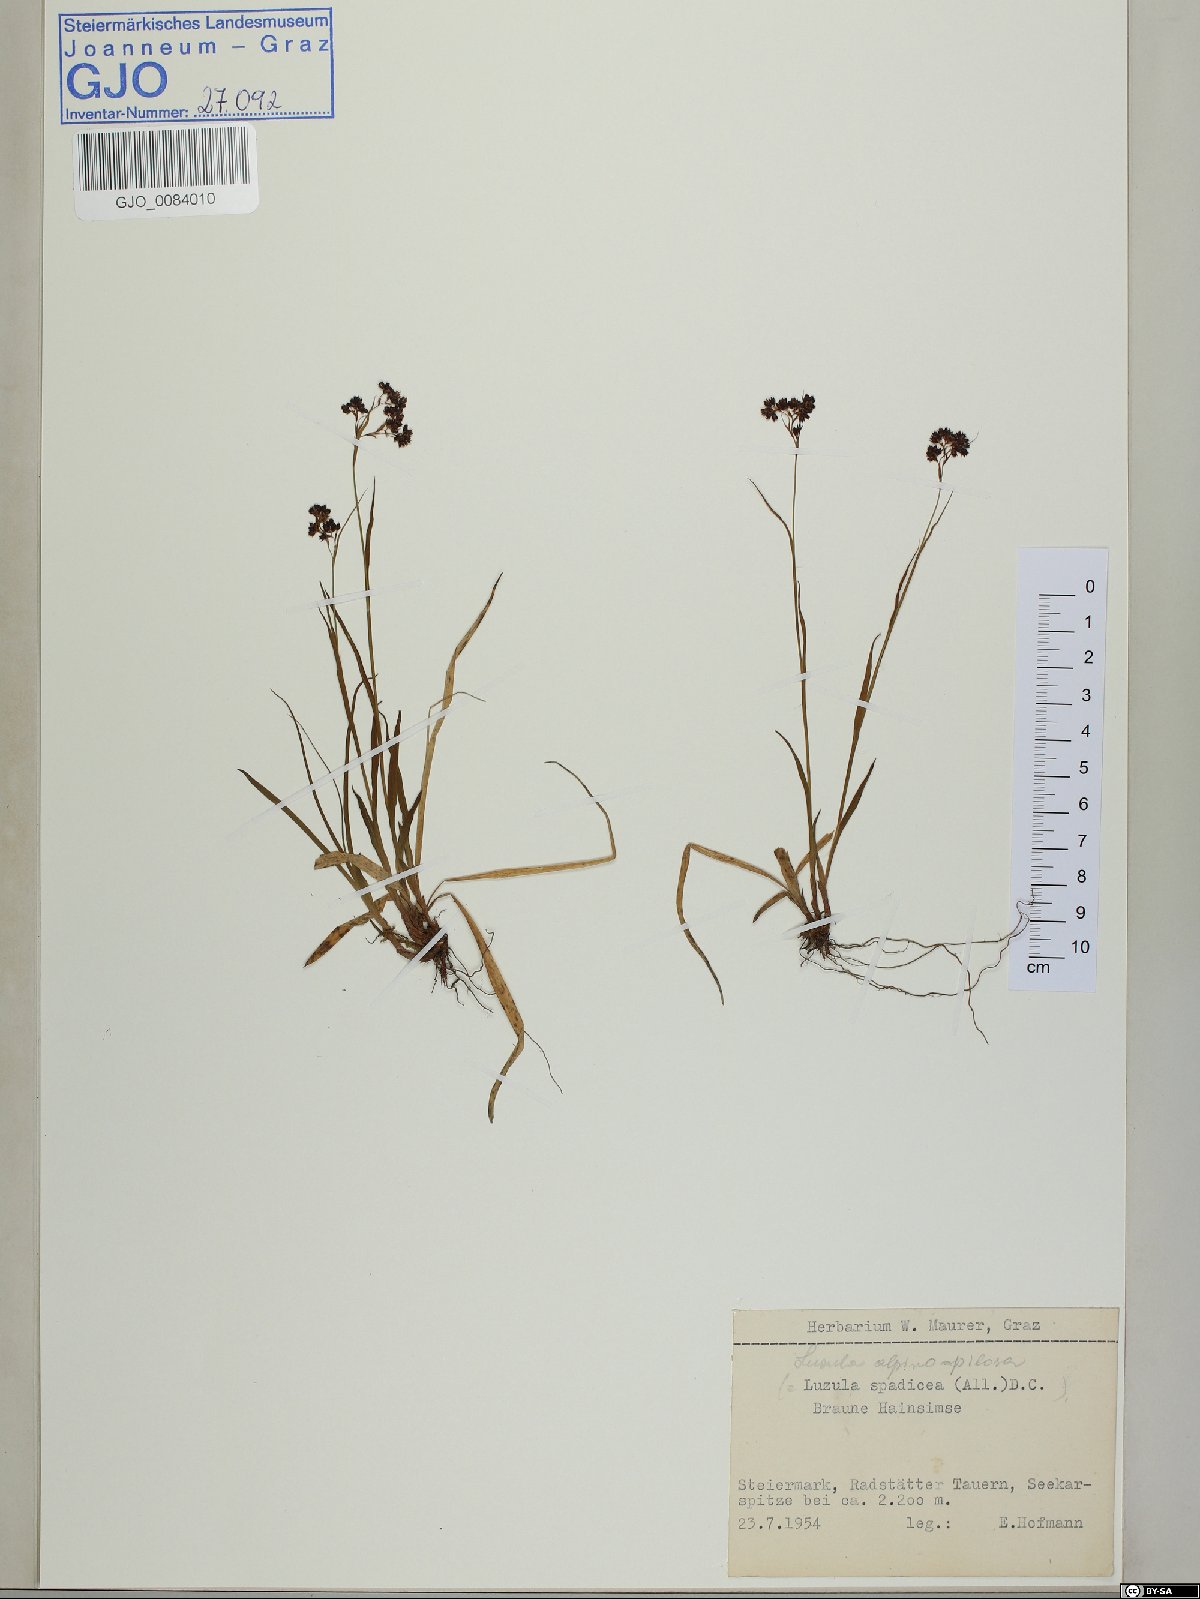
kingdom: Plantae
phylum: Tracheophyta
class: Liliopsida
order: Poales
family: Juncaceae
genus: Luzula
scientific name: Luzula alpinopilosa
